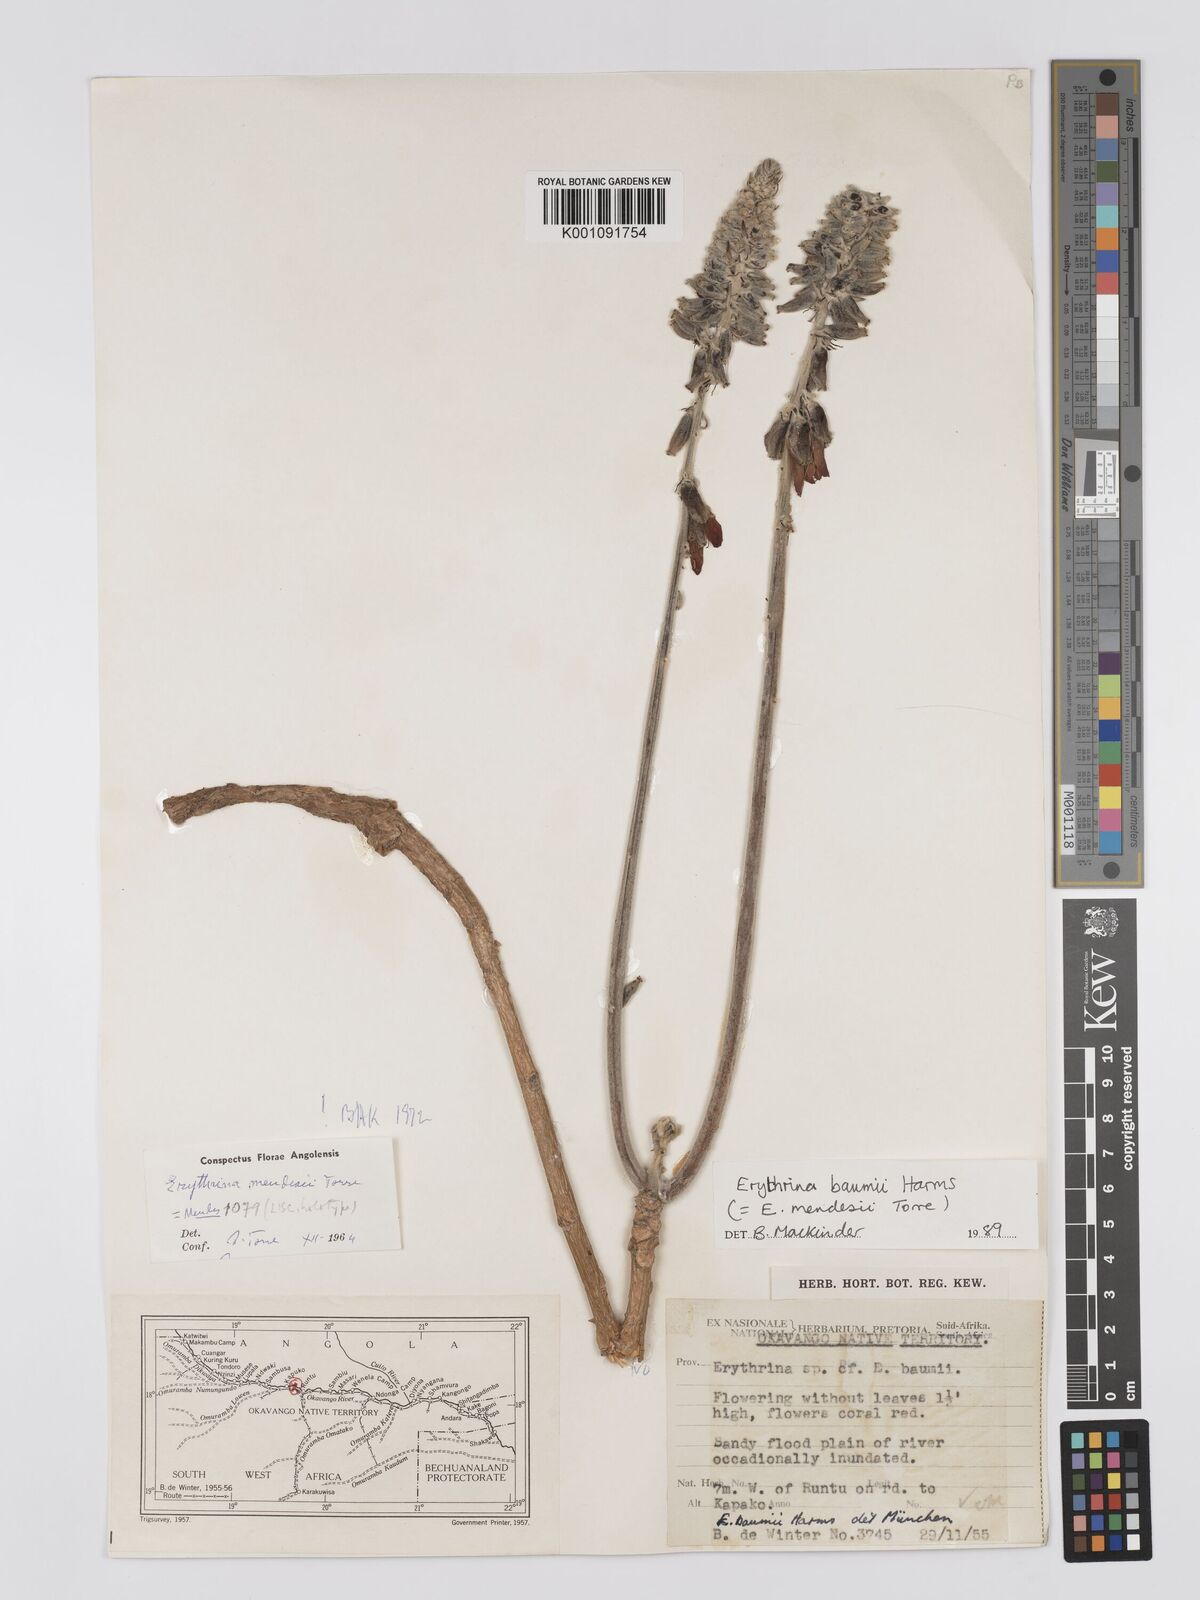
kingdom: Plantae
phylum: Tracheophyta
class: Magnoliopsida
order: Fabales
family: Fabaceae
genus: Erythrina
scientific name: Erythrina baumii
